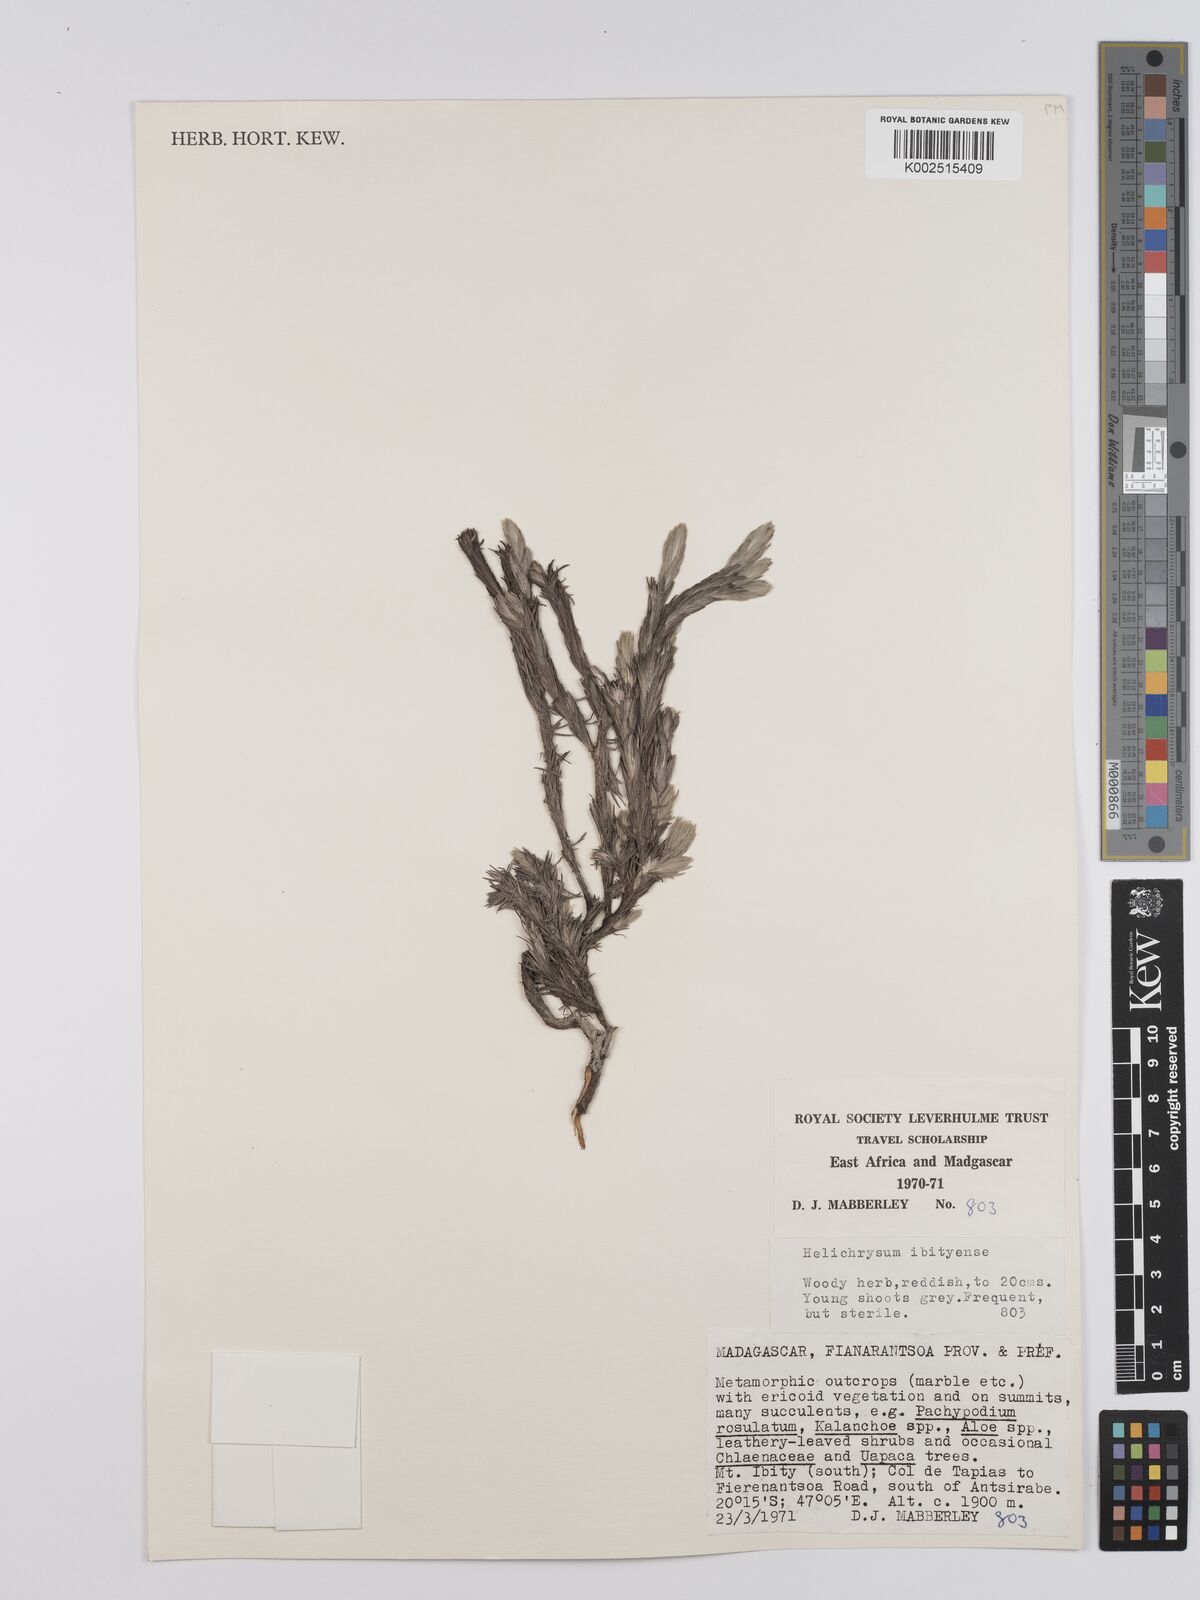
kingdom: Plantae
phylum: Tracheophyta
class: Magnoliopsida
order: Asterales
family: Asteraceae
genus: Helichrysum
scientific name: Helichrysum ibityense
